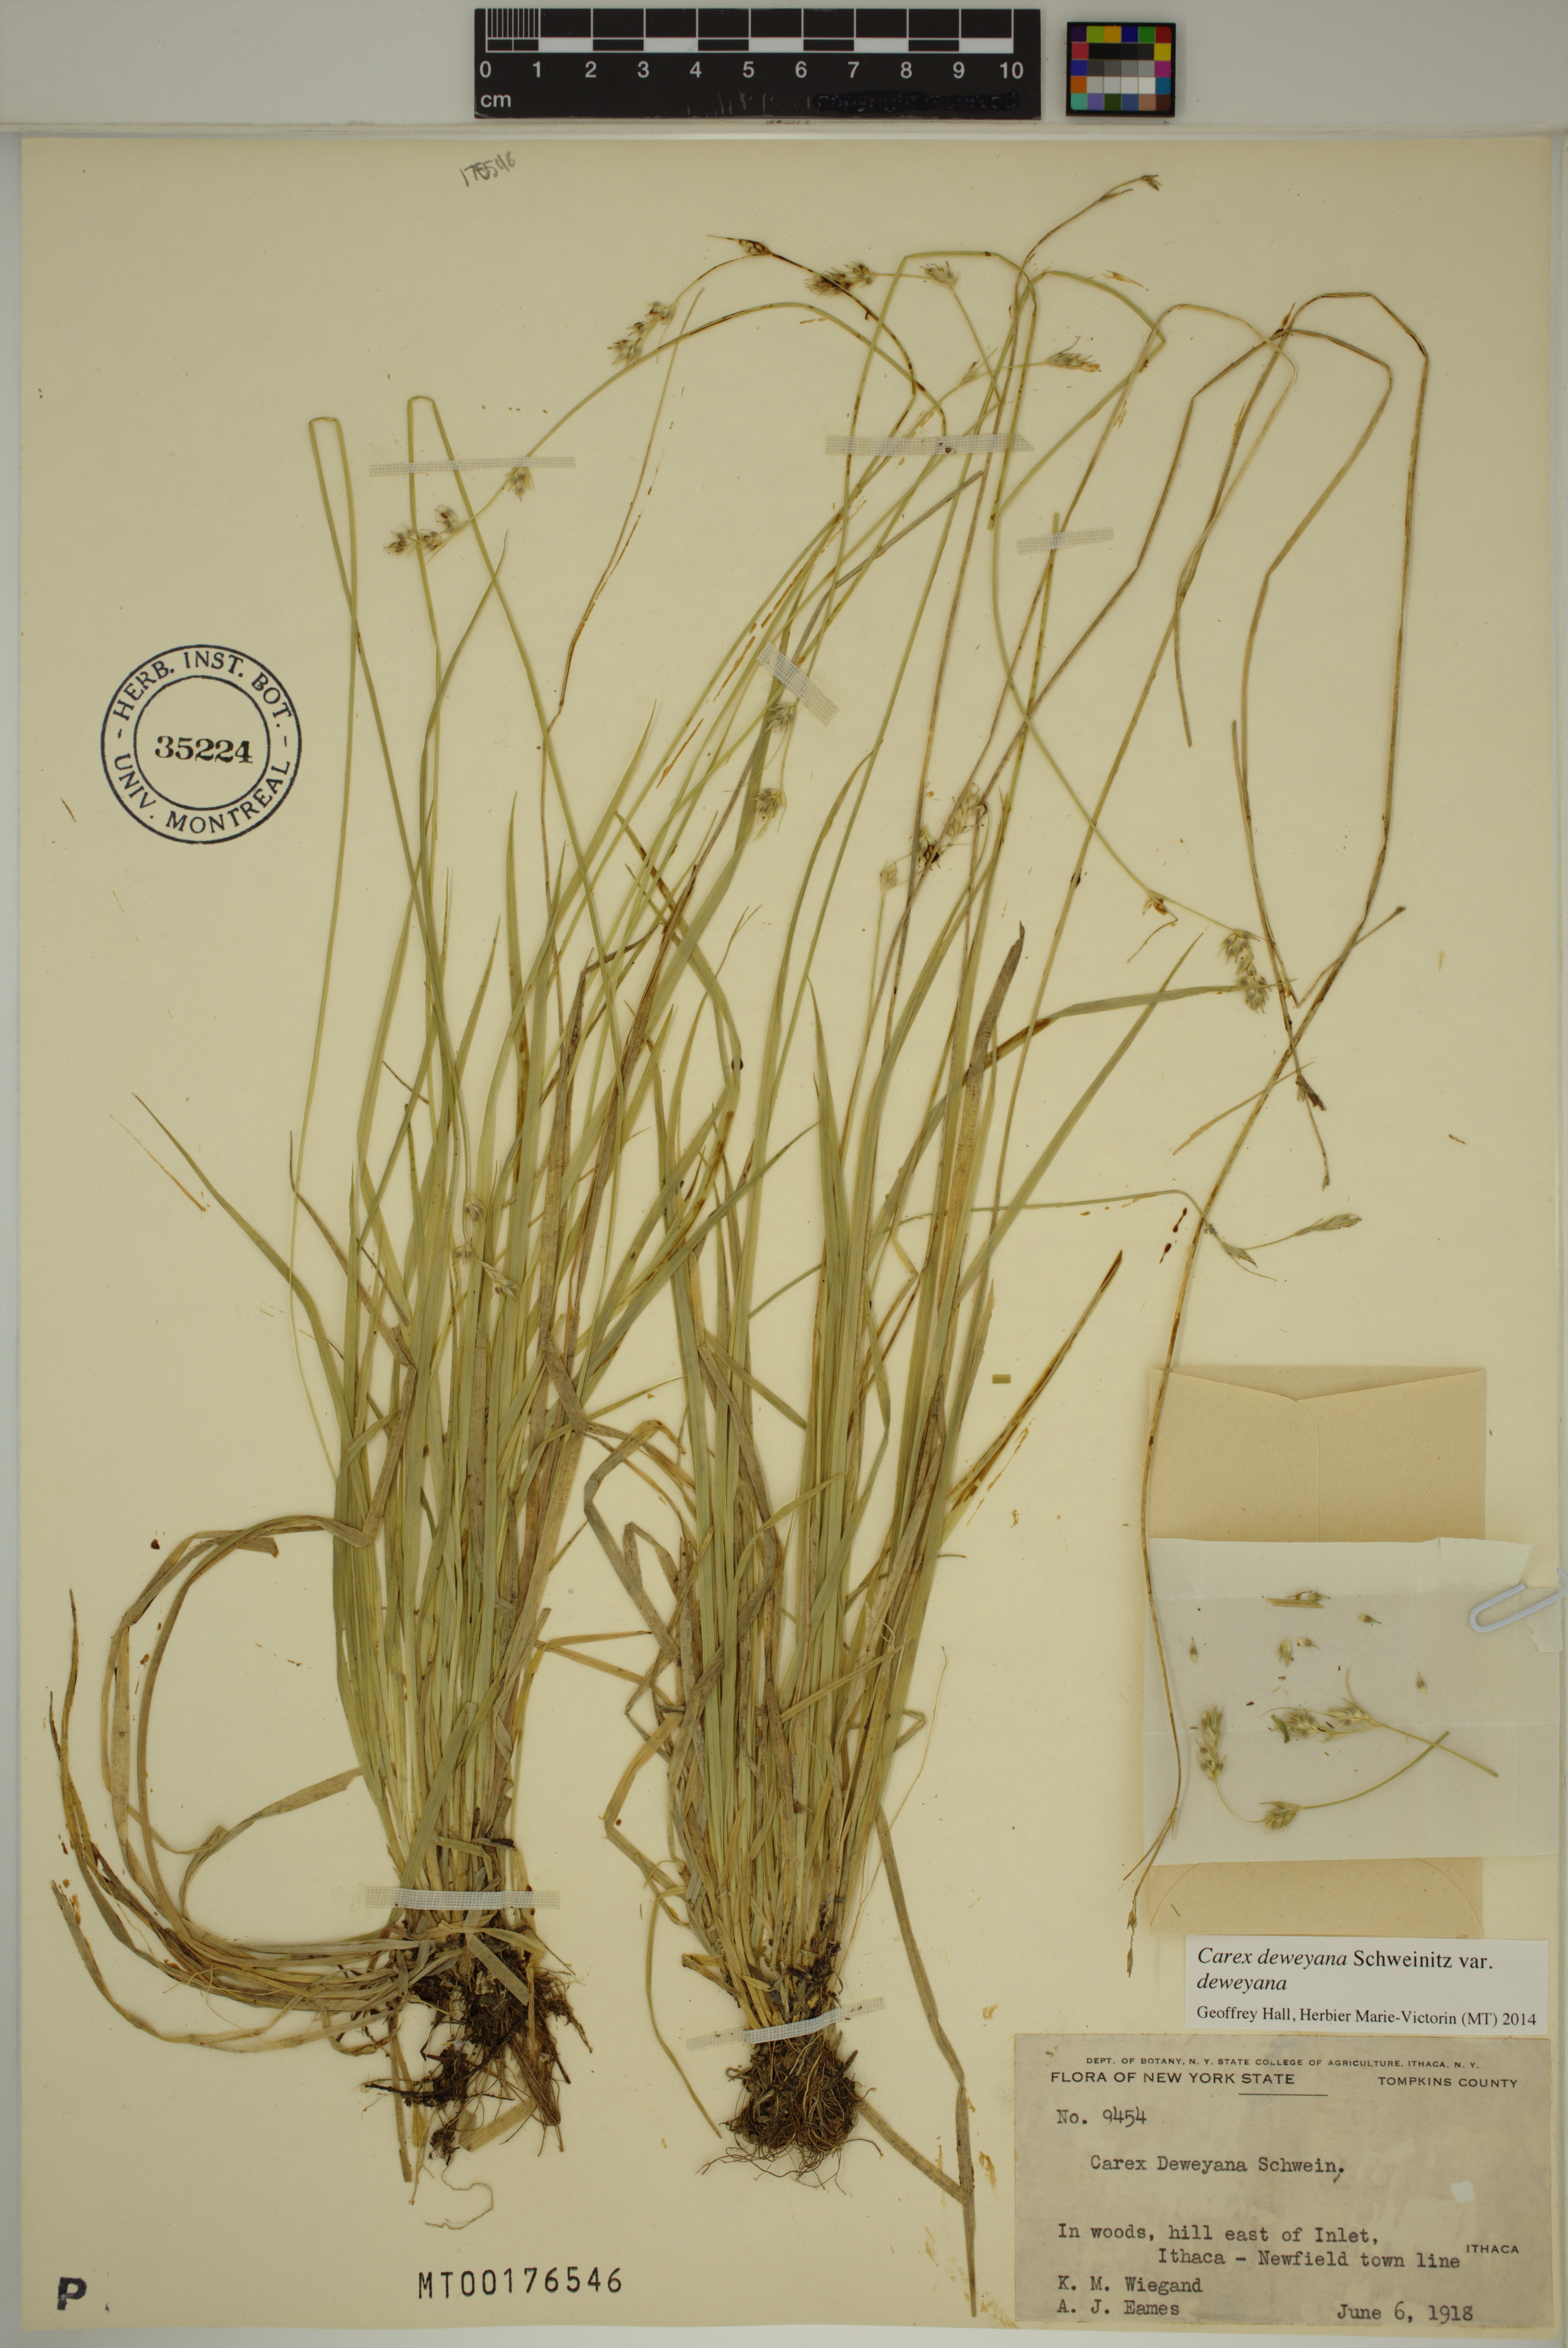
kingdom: Plantae
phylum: Tracheophyta
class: Liliopsida
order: Poales
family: Cyperaceae
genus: Carex
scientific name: Carex deweyana
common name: Dewey's sedge
